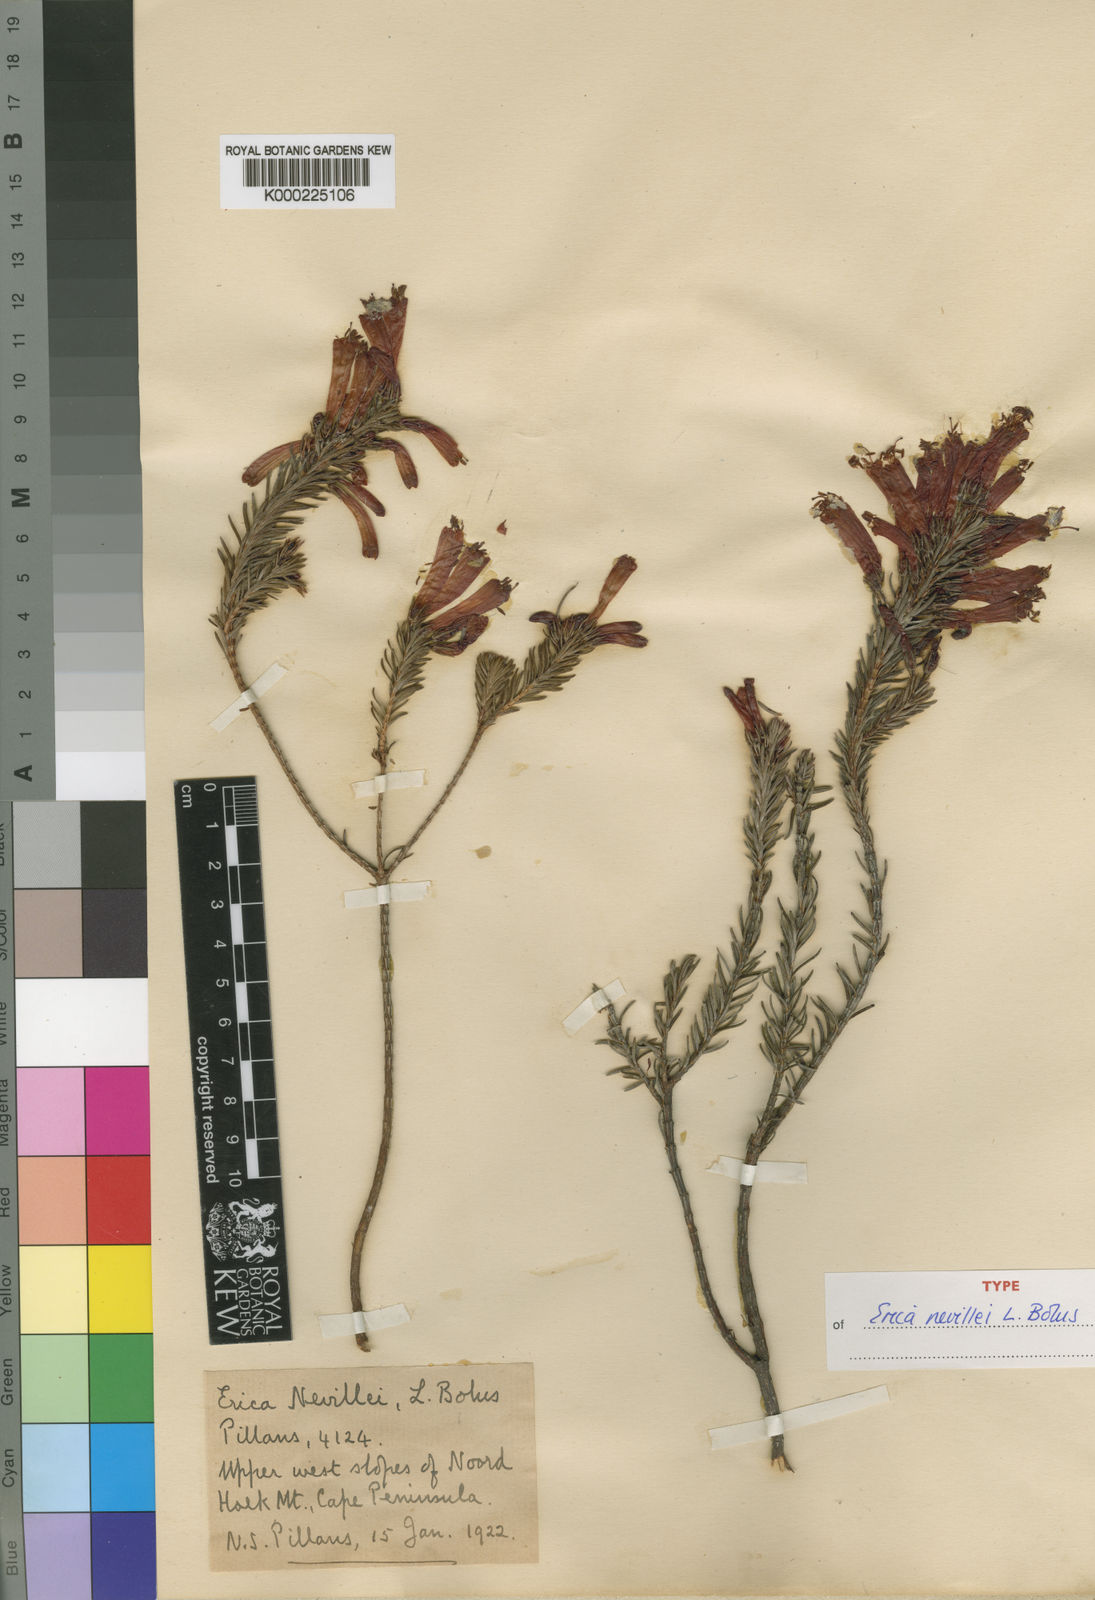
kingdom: Plantae
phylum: Tracheophyta
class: Magnoliopsida
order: Ericales
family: Ericaceae
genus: Erica
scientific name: Erica nevillei
